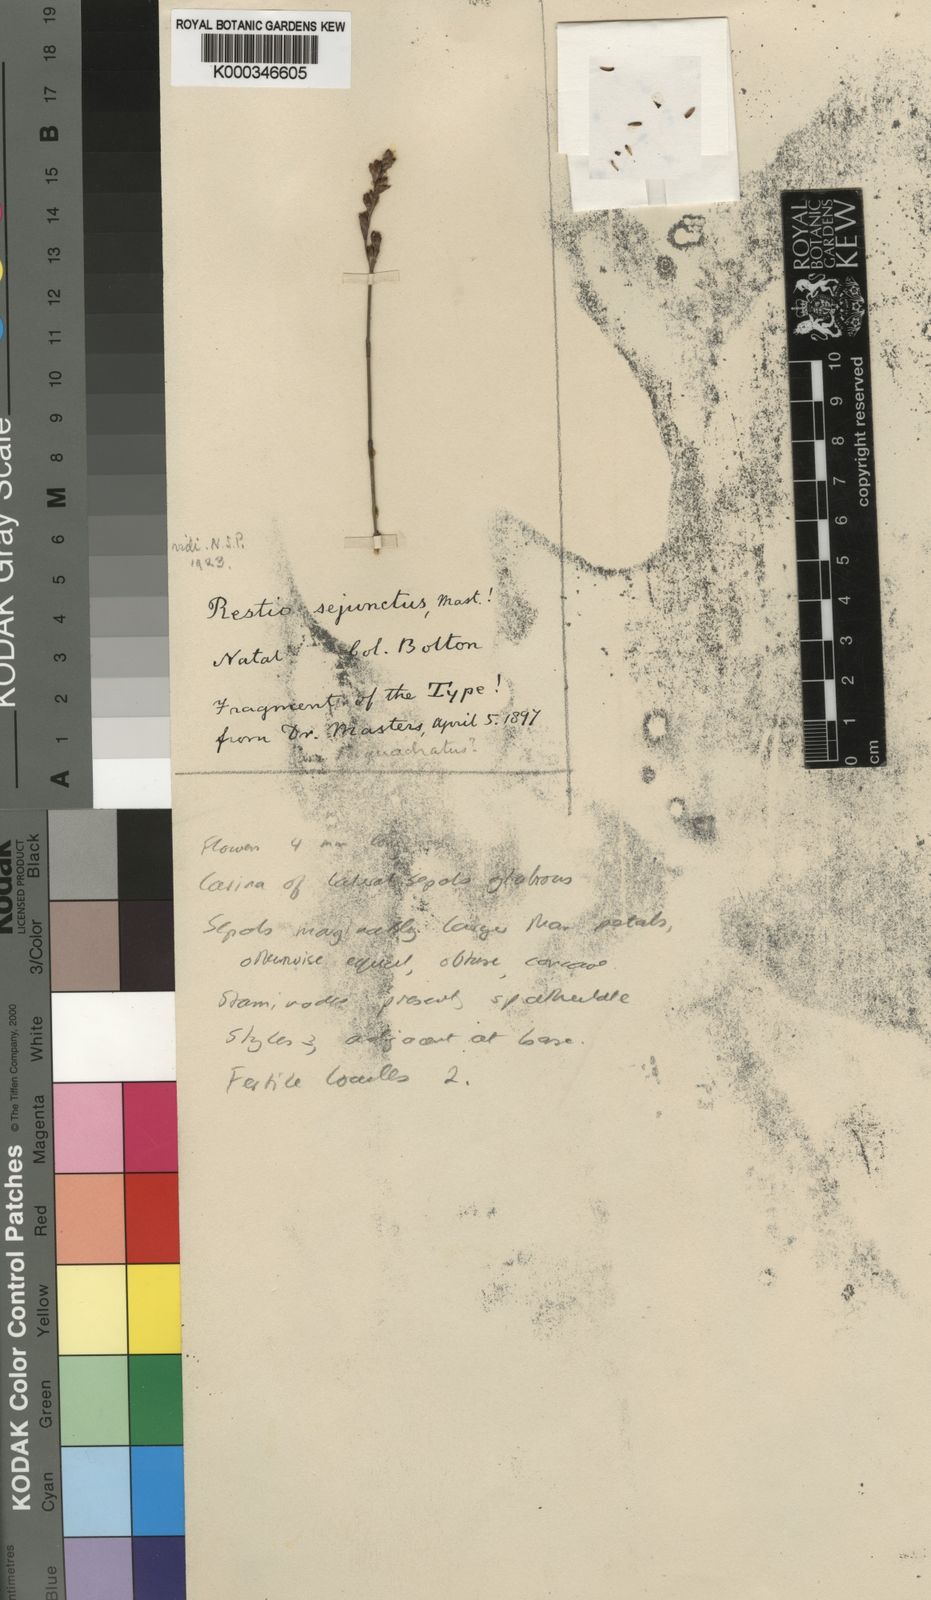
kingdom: Plantae
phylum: Tracheophyta
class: Liliopsida
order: Poales
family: Restionaceae
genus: Restio
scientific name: Restio sejunctus
